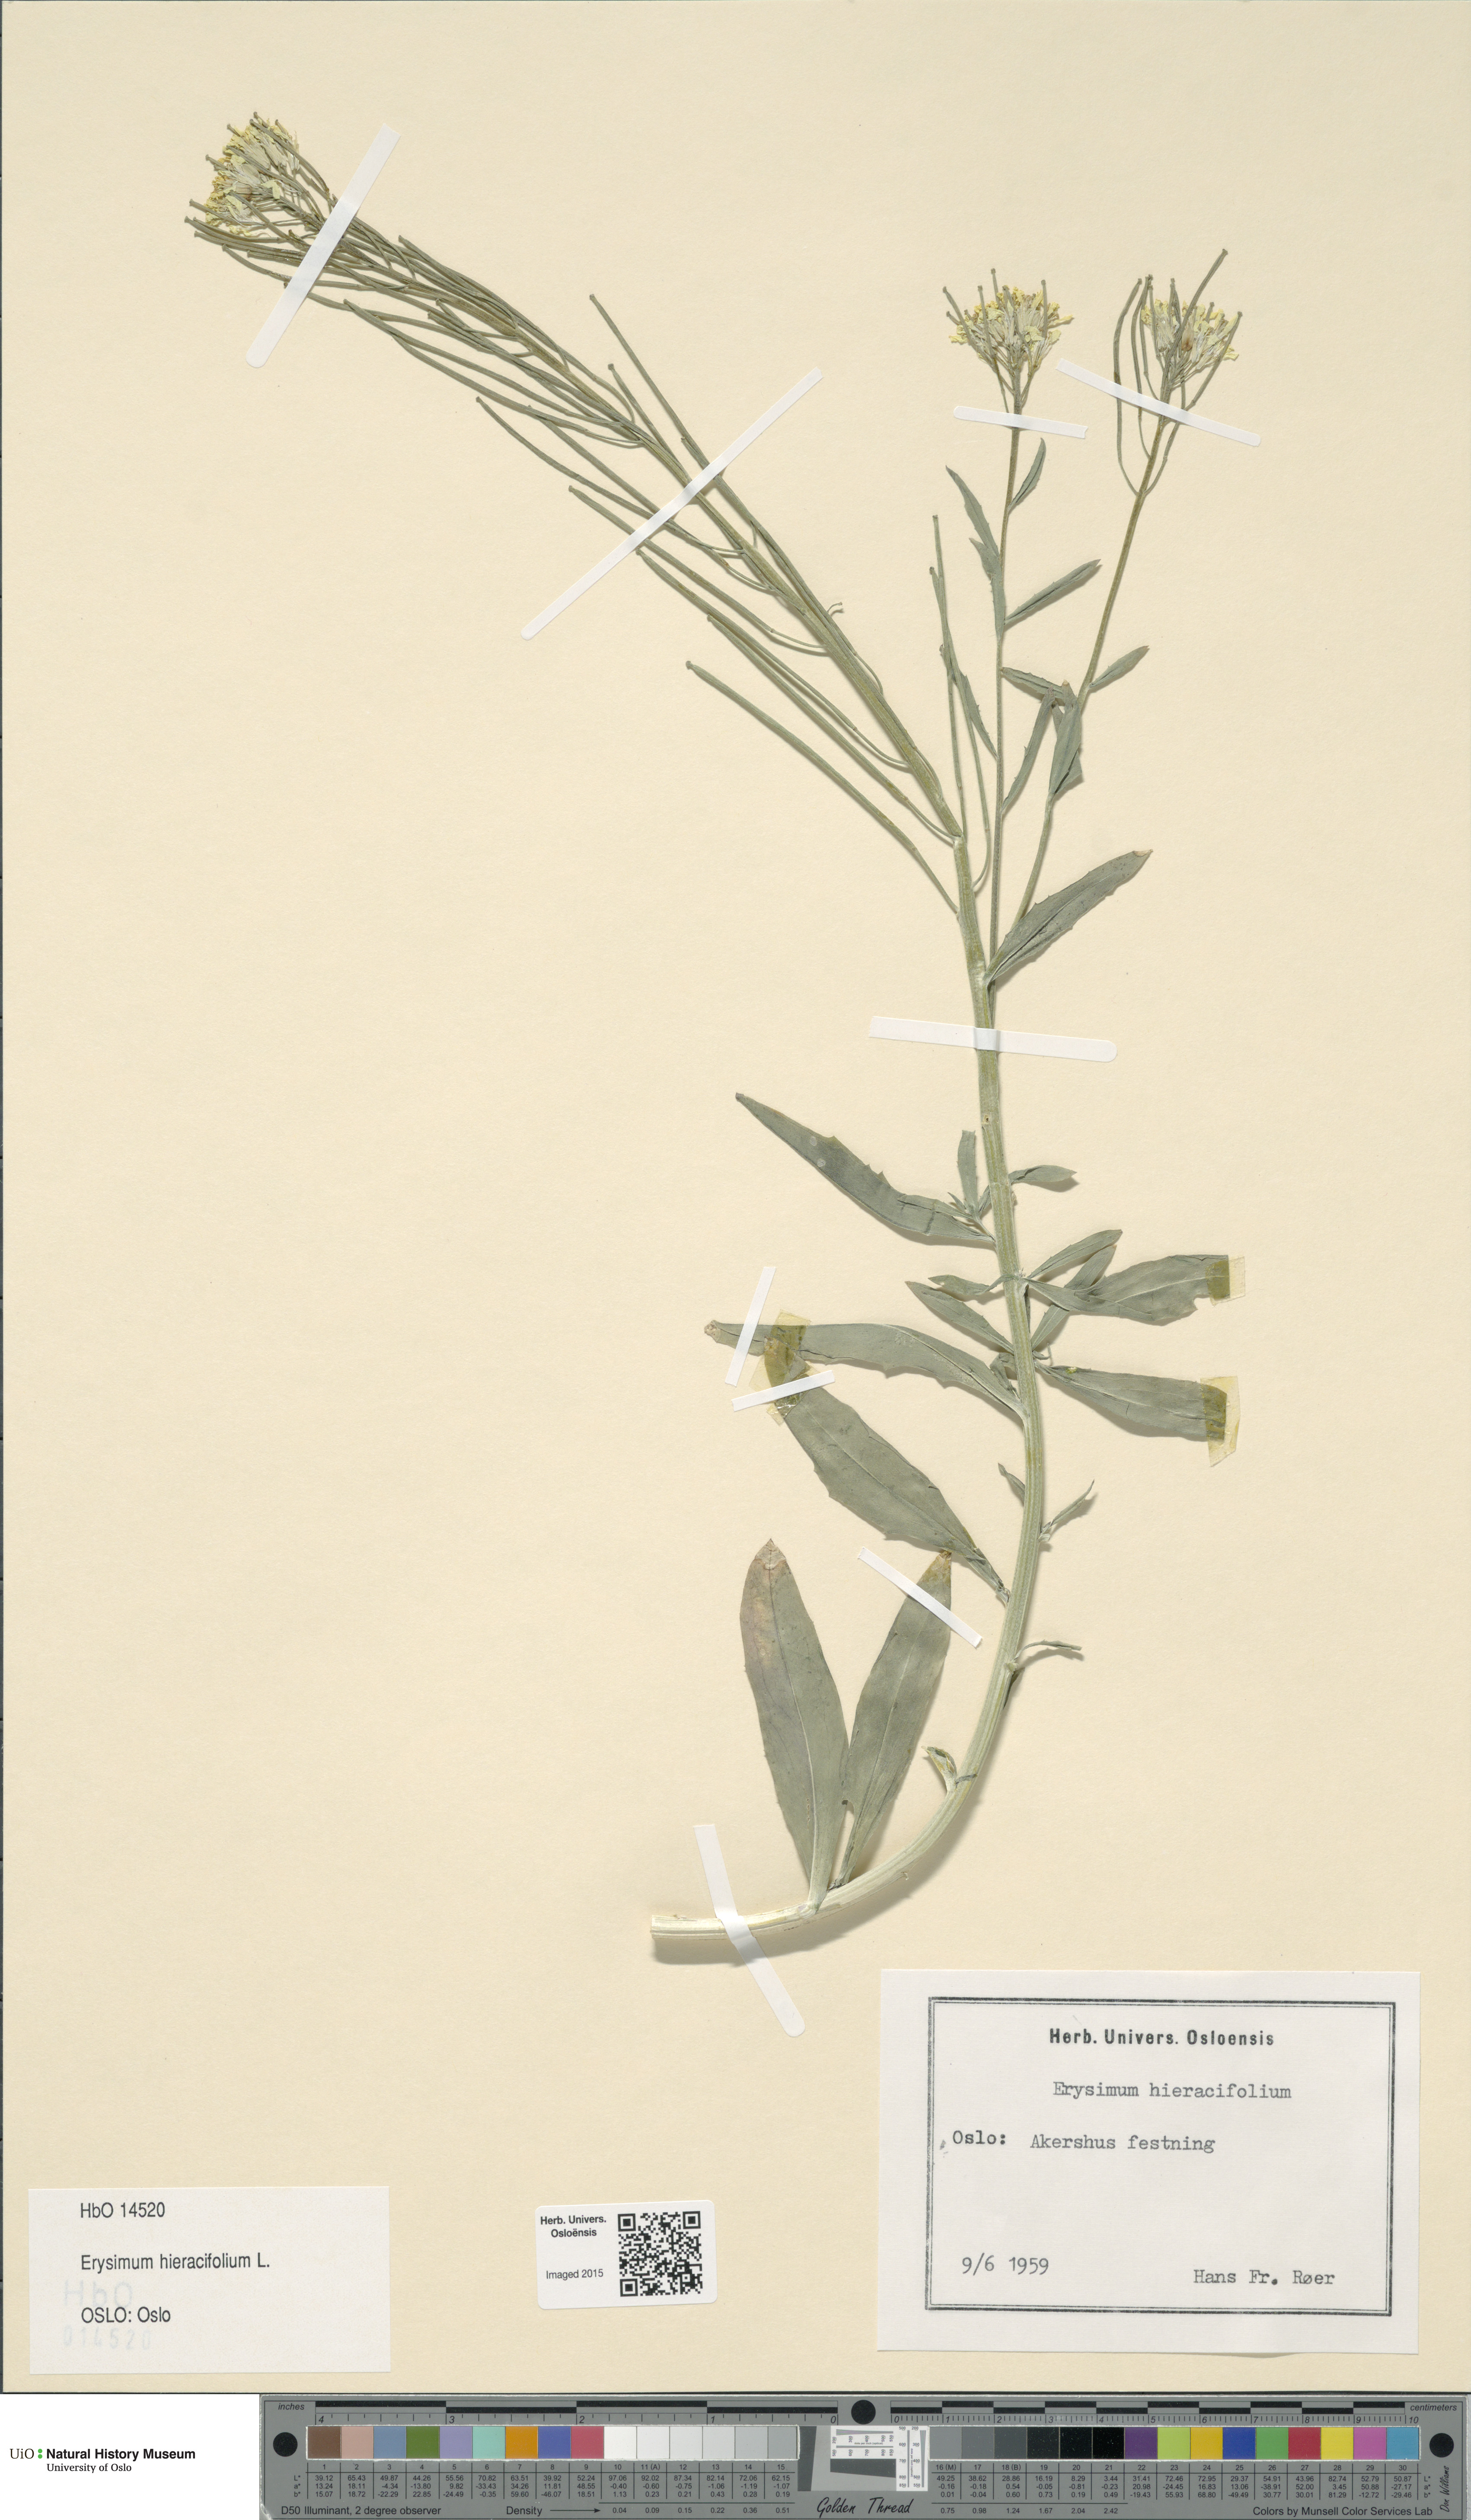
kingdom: Plantae
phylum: Tracheophyta
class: Magnoliopsida
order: Brassicales
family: Brassicaceae
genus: Erysimum
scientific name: Erysimum hieraciifolium
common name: European wallflower
